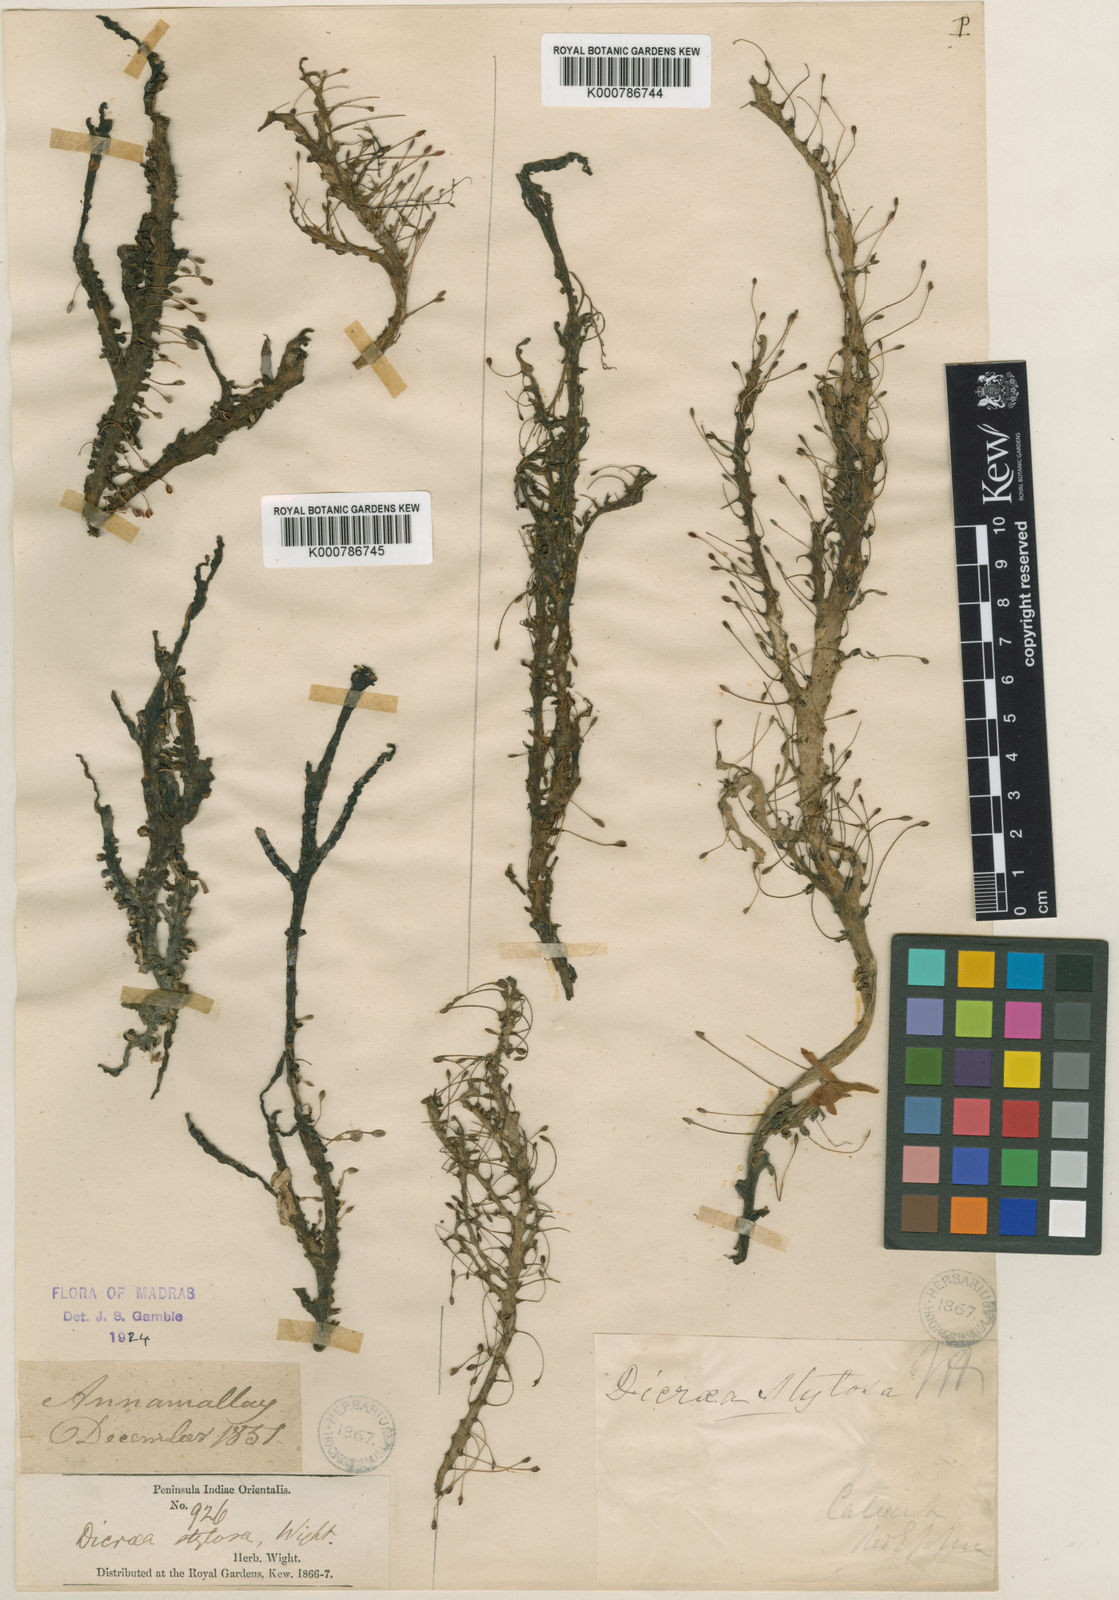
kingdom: Plantae
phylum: Tracheophyta
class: Magnoliopsida
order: Malpighiales
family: Podostemaceae
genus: Polypleurum
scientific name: Polypleurum wallichii
